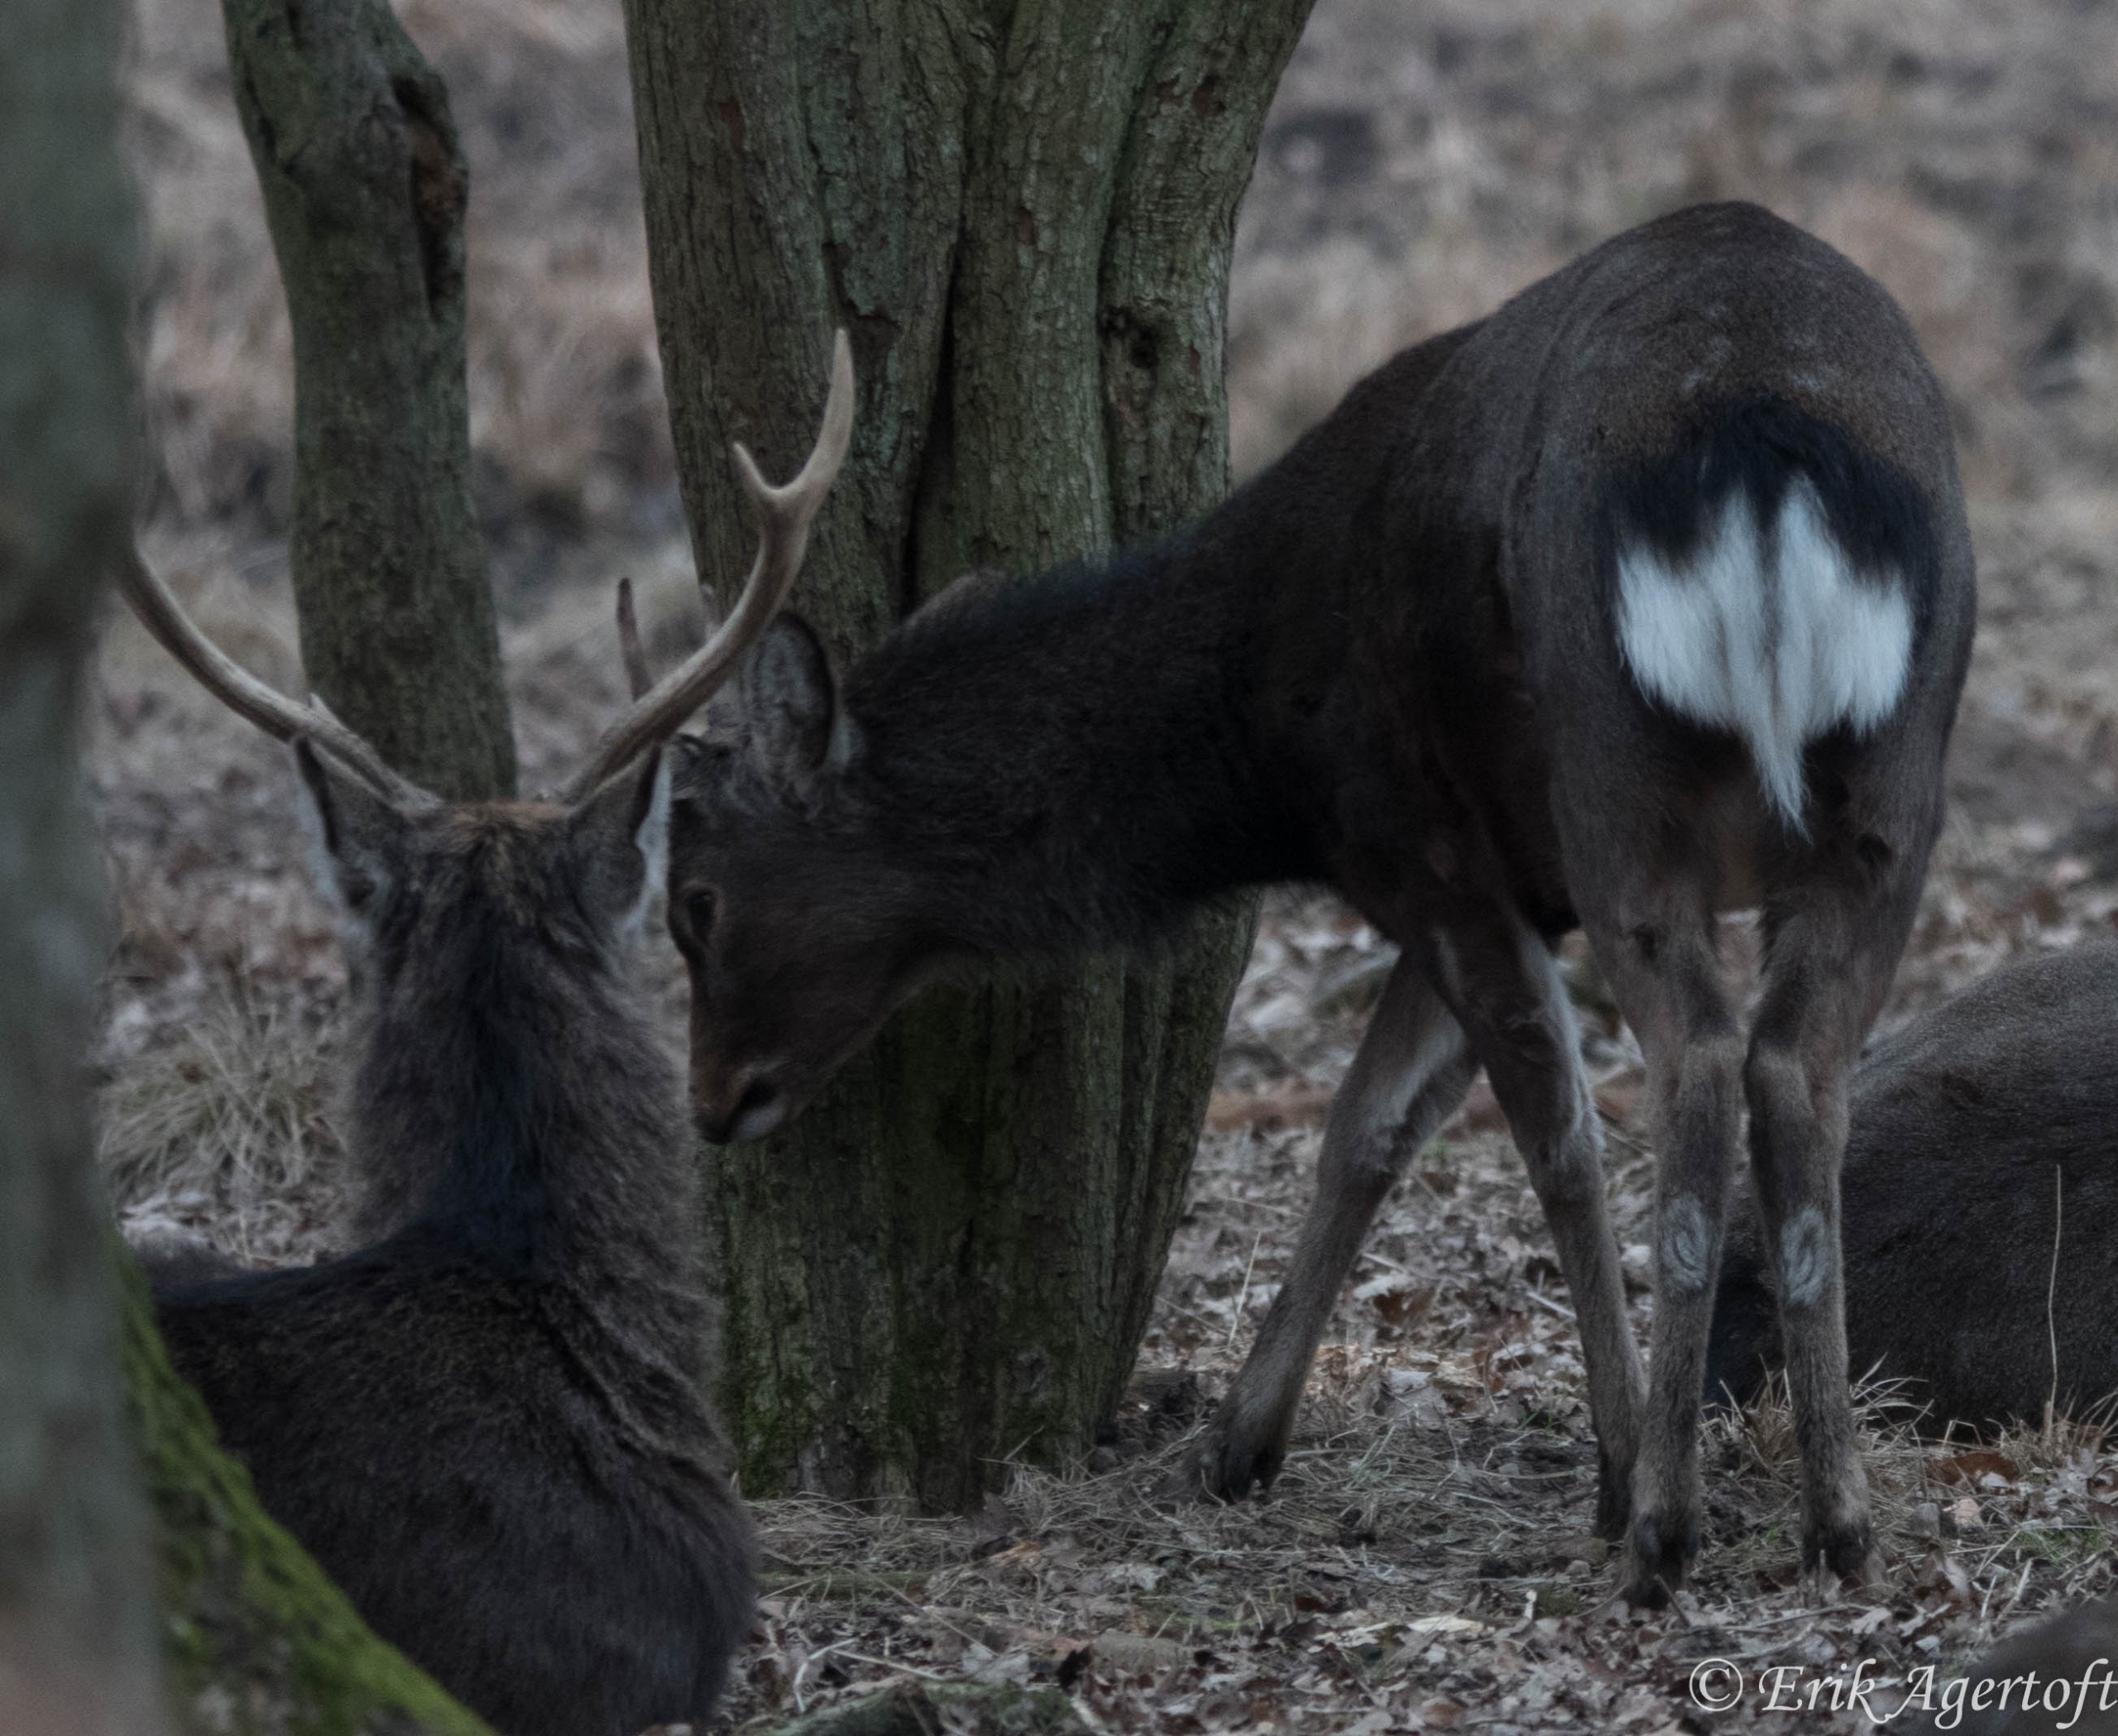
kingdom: Animalia
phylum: Chordata
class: Mammalia
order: Artiodactyla
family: Cervidae
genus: Cervus
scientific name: Cervus nippon
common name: Sika
